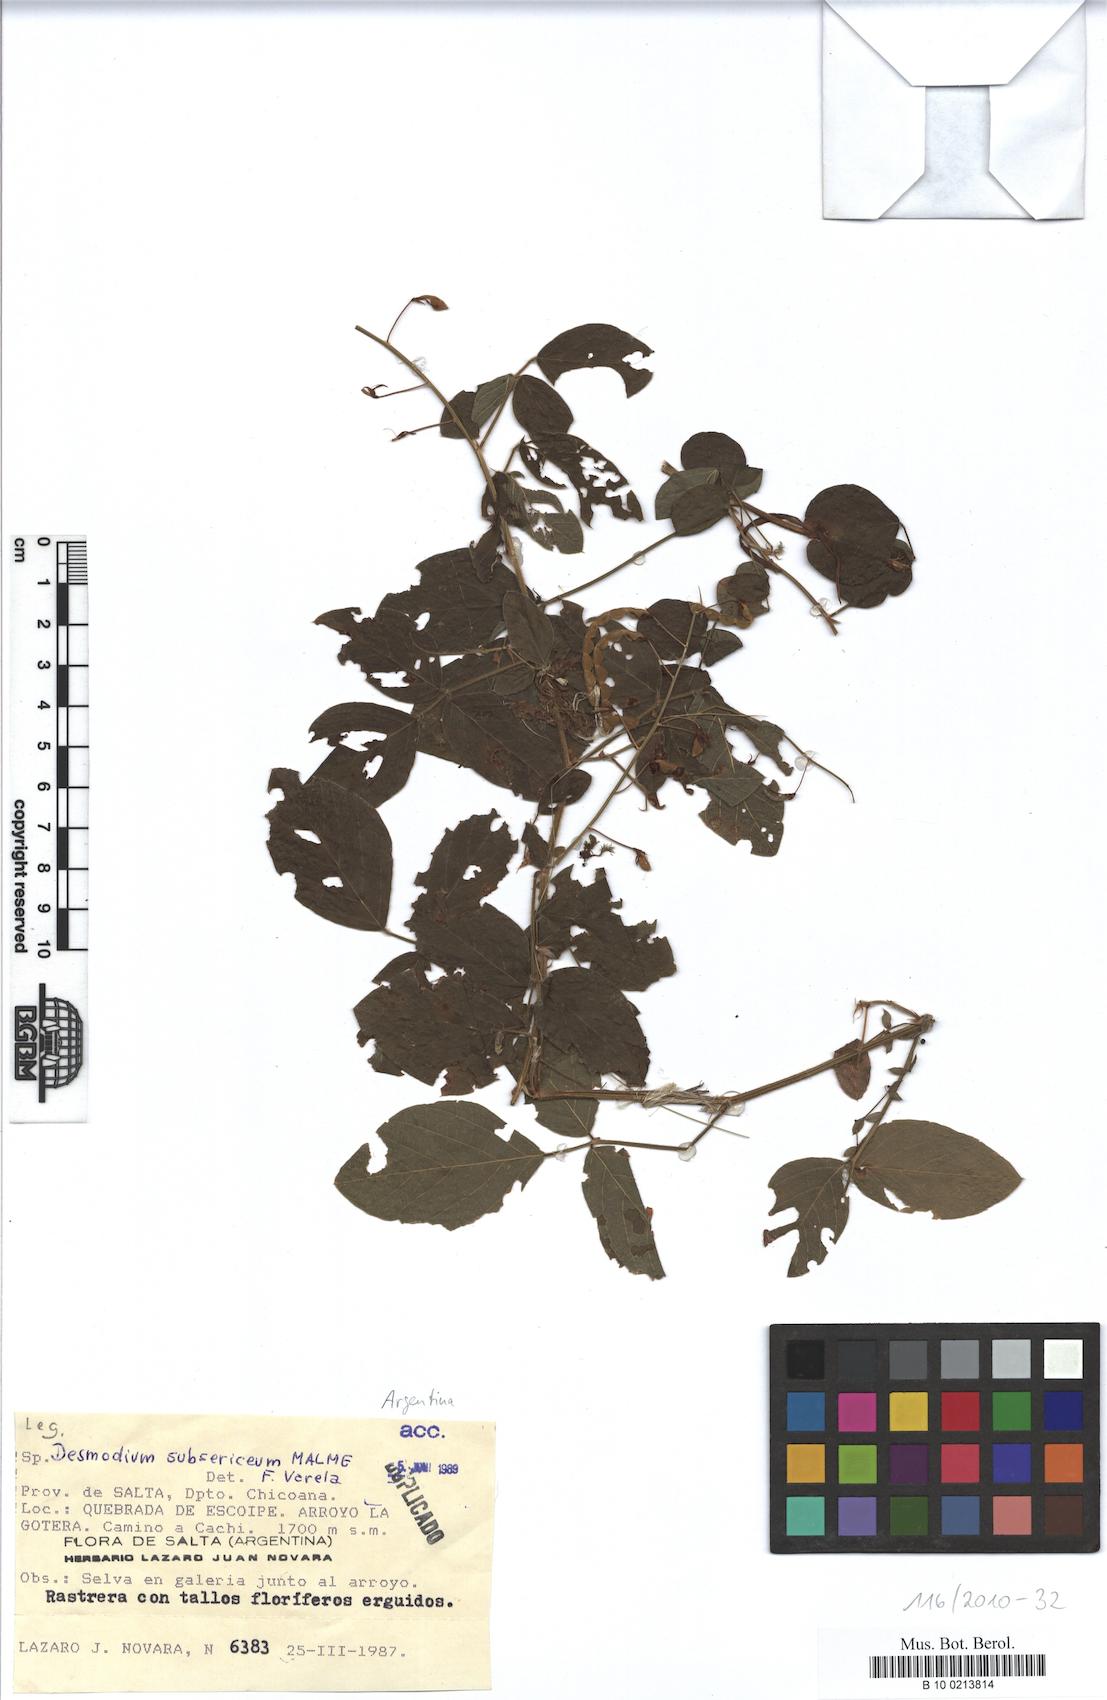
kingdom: Plantae
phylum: Tracheophyta
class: Magnoliopsida
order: Fabales
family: Fabaceae
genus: Desmodium
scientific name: Desmodium subsericeum
